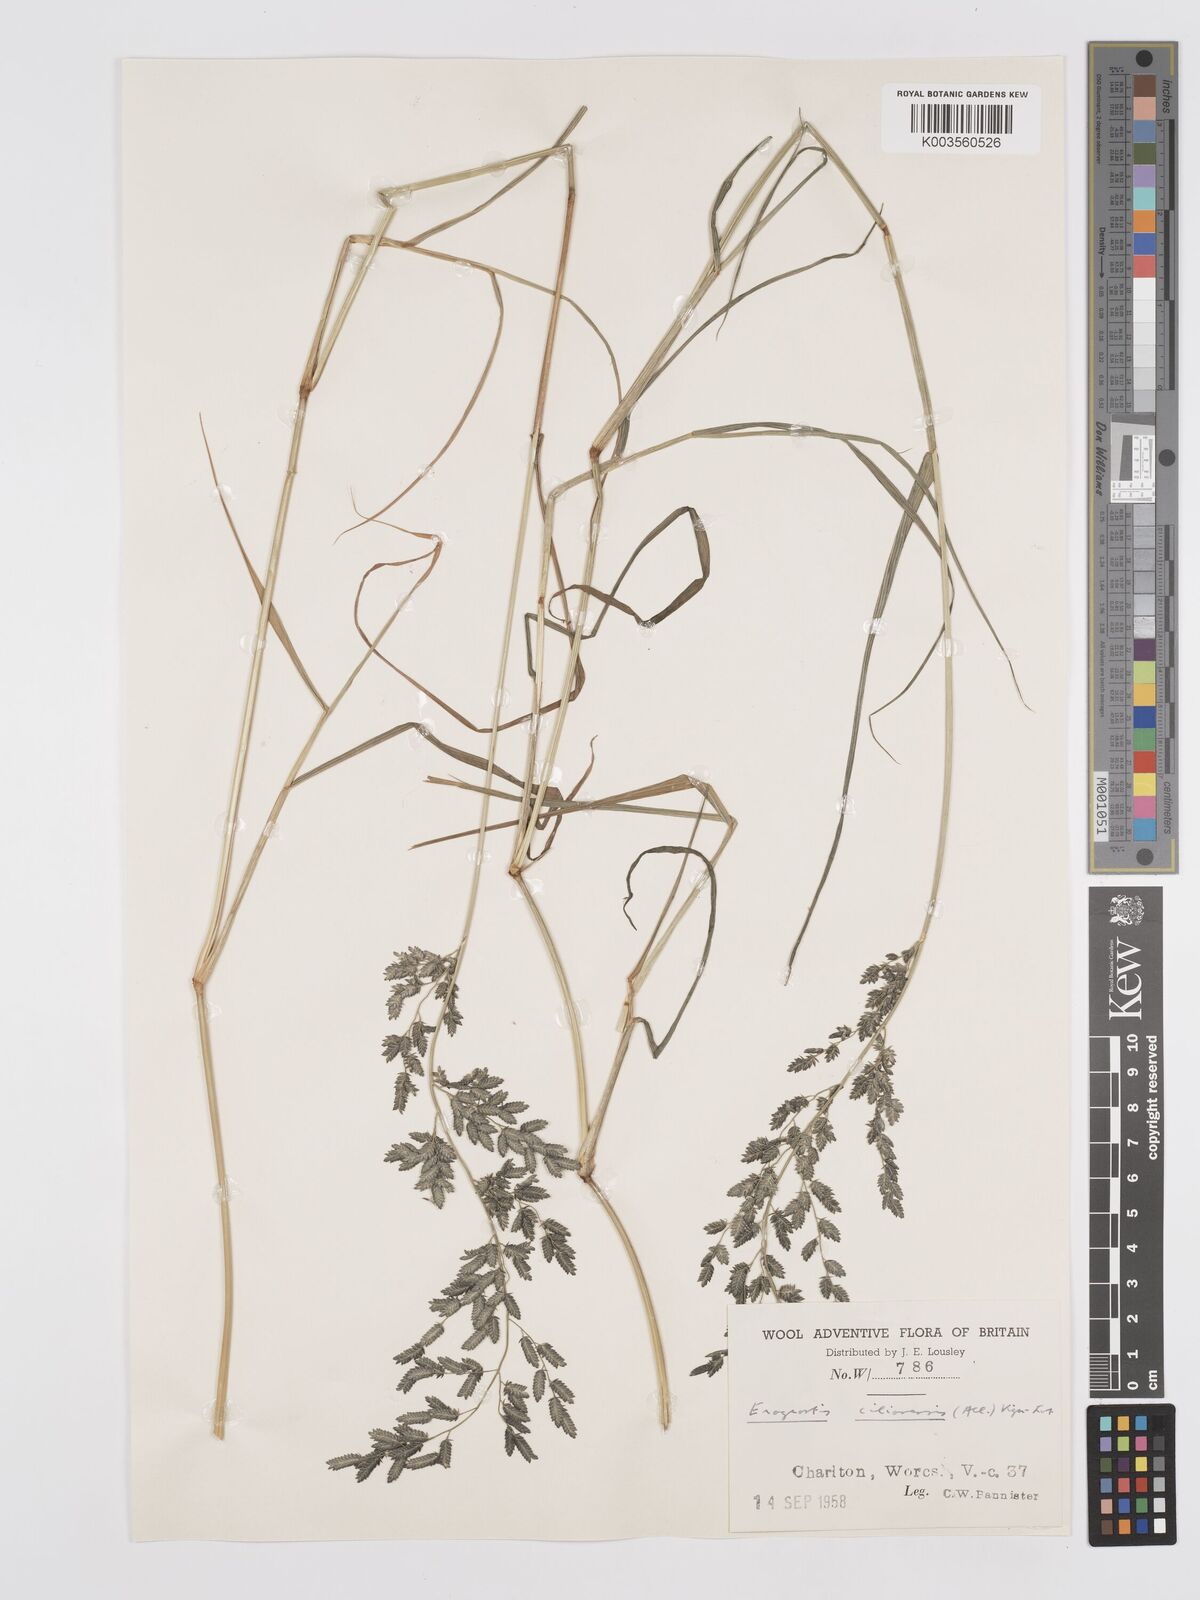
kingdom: Plantae
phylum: Tracheophyta
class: Liliopsida
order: Poales
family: Poaceae
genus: Eragrostis
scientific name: Eragrostis cilianensis
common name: Stinkgrass
